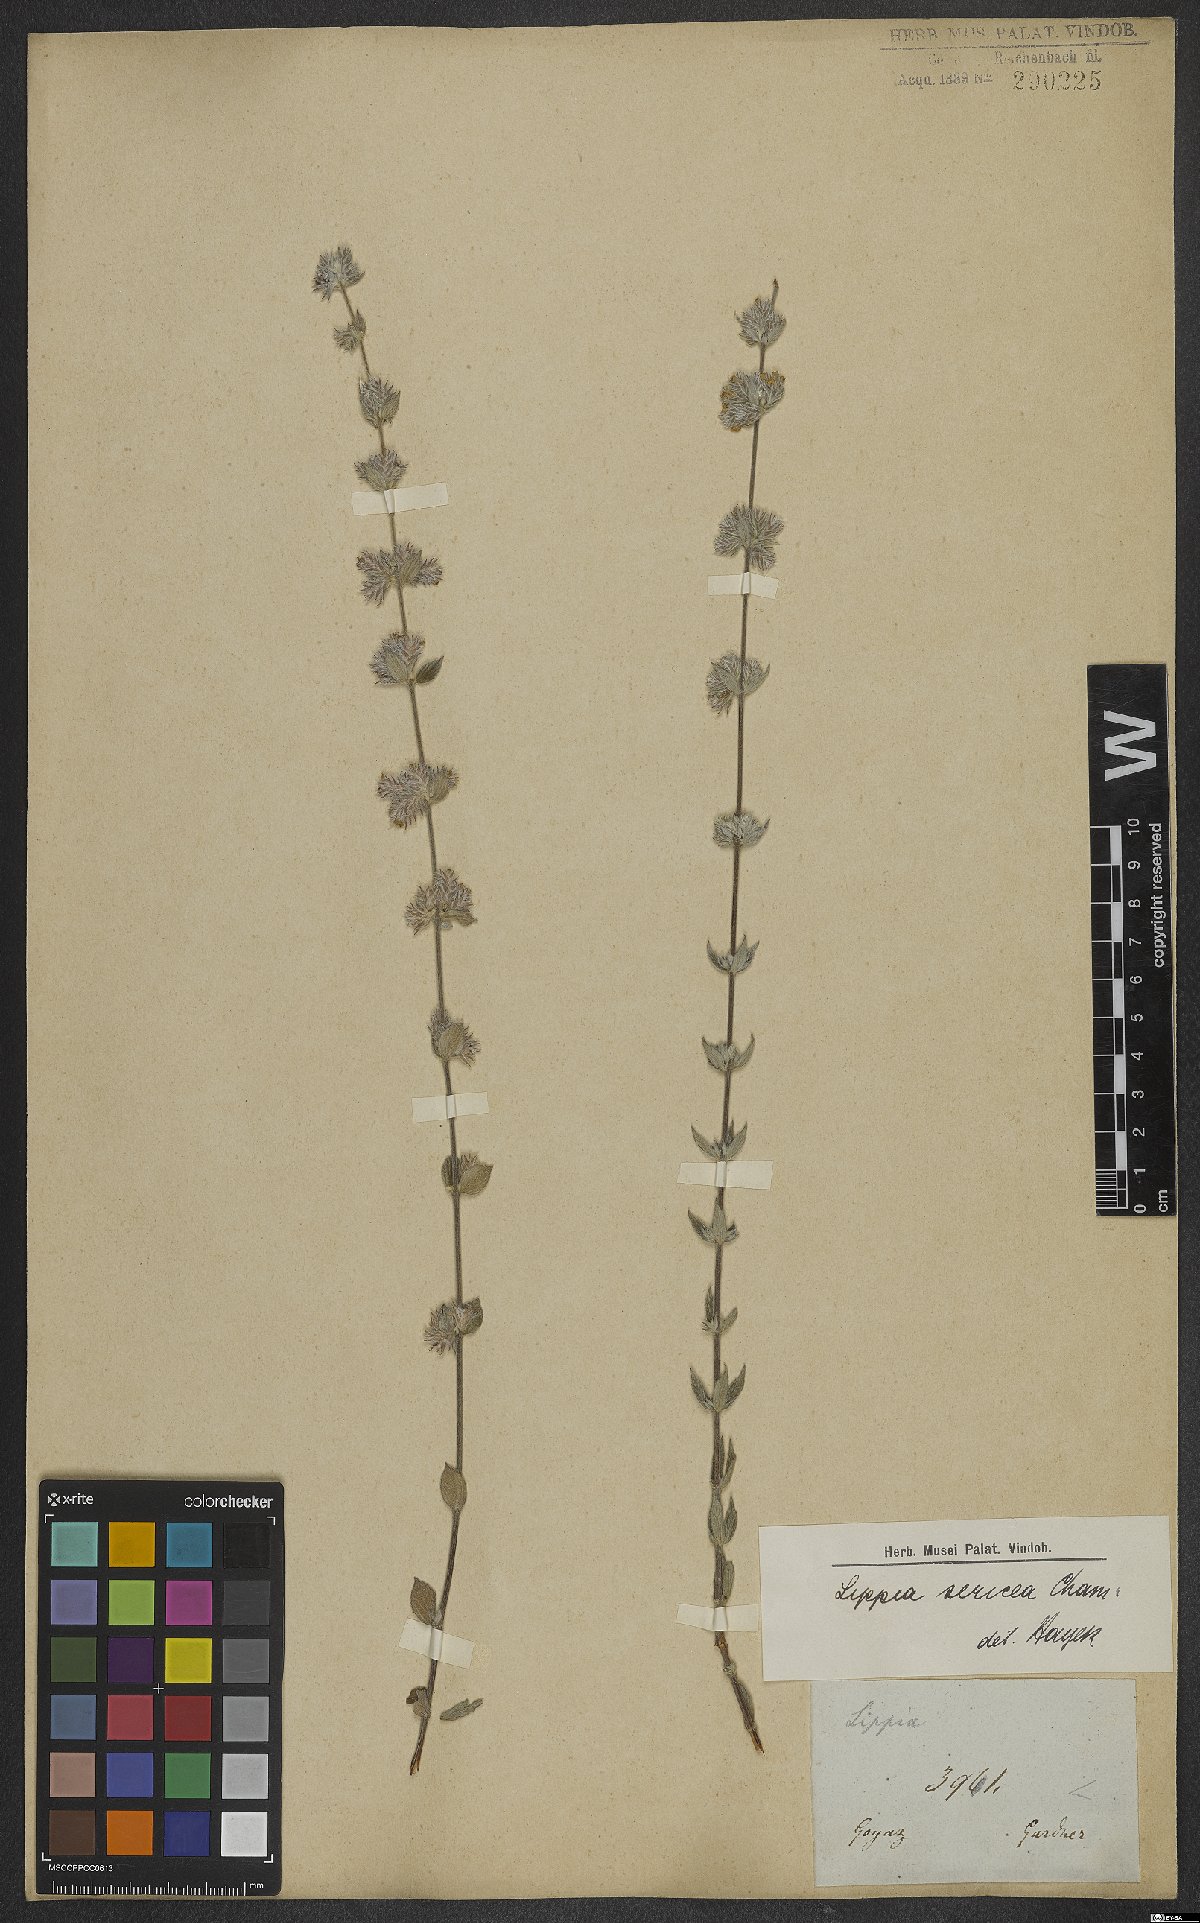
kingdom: Plantae
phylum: Tracheophyta
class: Magnoliopsida
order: Lamiales
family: Verbenaceae
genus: Lippia
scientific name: Lippia sericea
